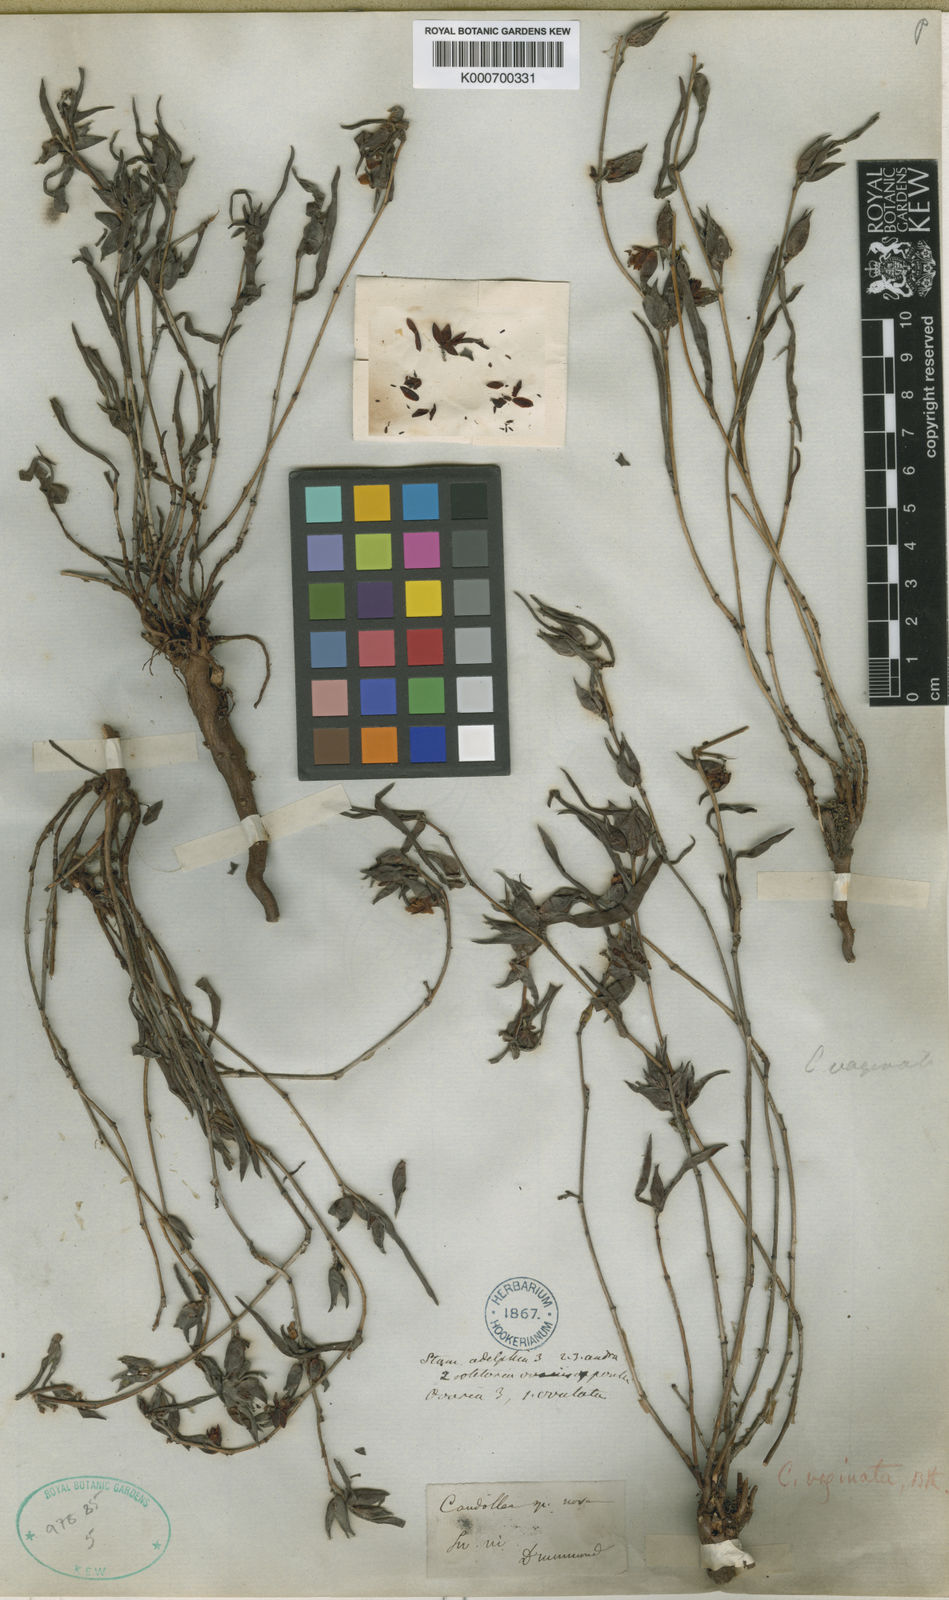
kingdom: Plantae
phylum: Tracheophyta
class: Magnoliopsida
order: Dilleniales
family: Dilleniaceae
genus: Hibbertia
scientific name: Hibbertia vaginata
